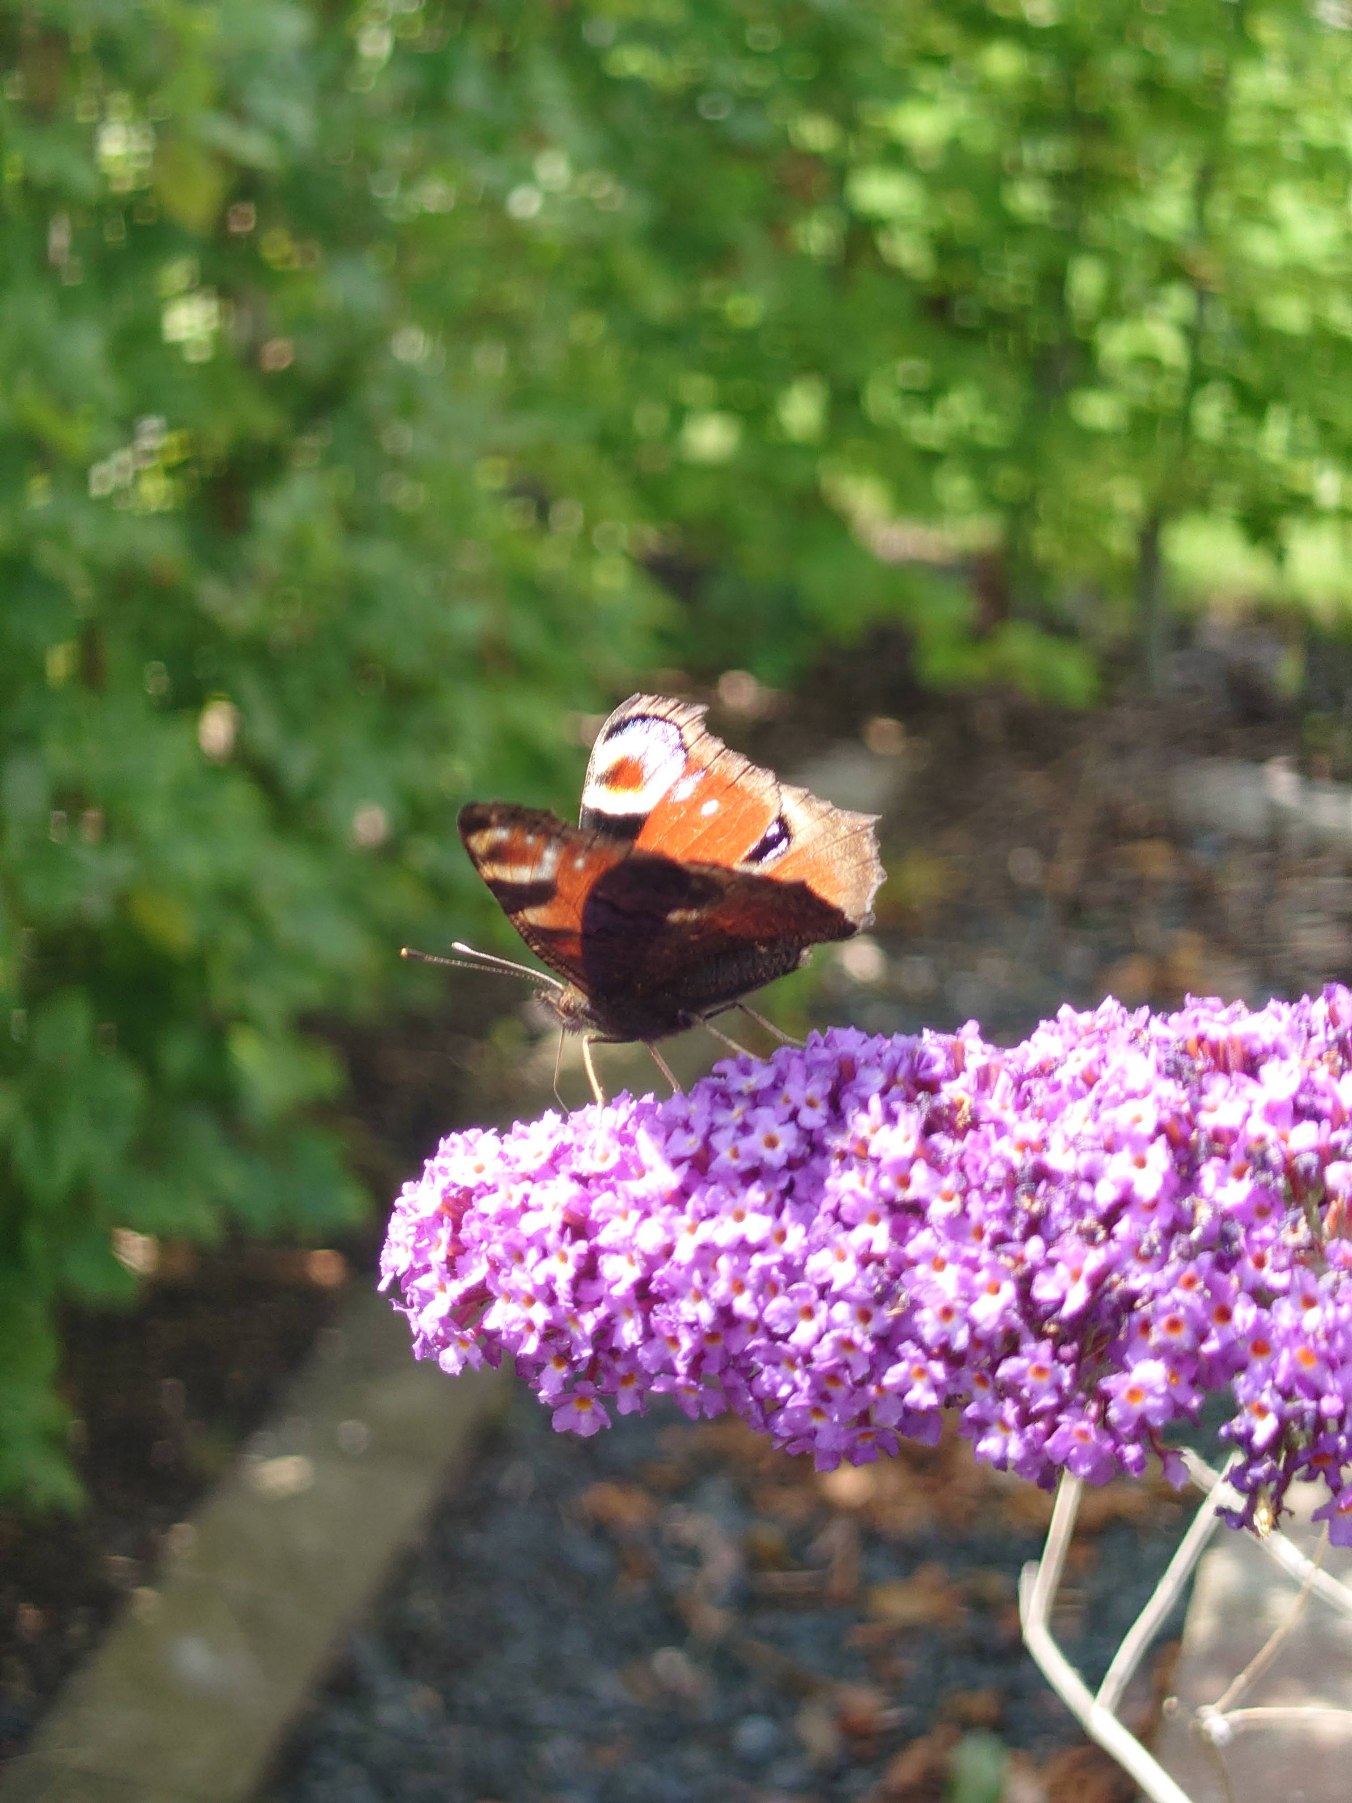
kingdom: Animalia
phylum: Arthropoda
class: Insecta
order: Lepidoptera
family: Nymphalidae
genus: Aglais
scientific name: Aglais io
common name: Dagpåfugleøje
